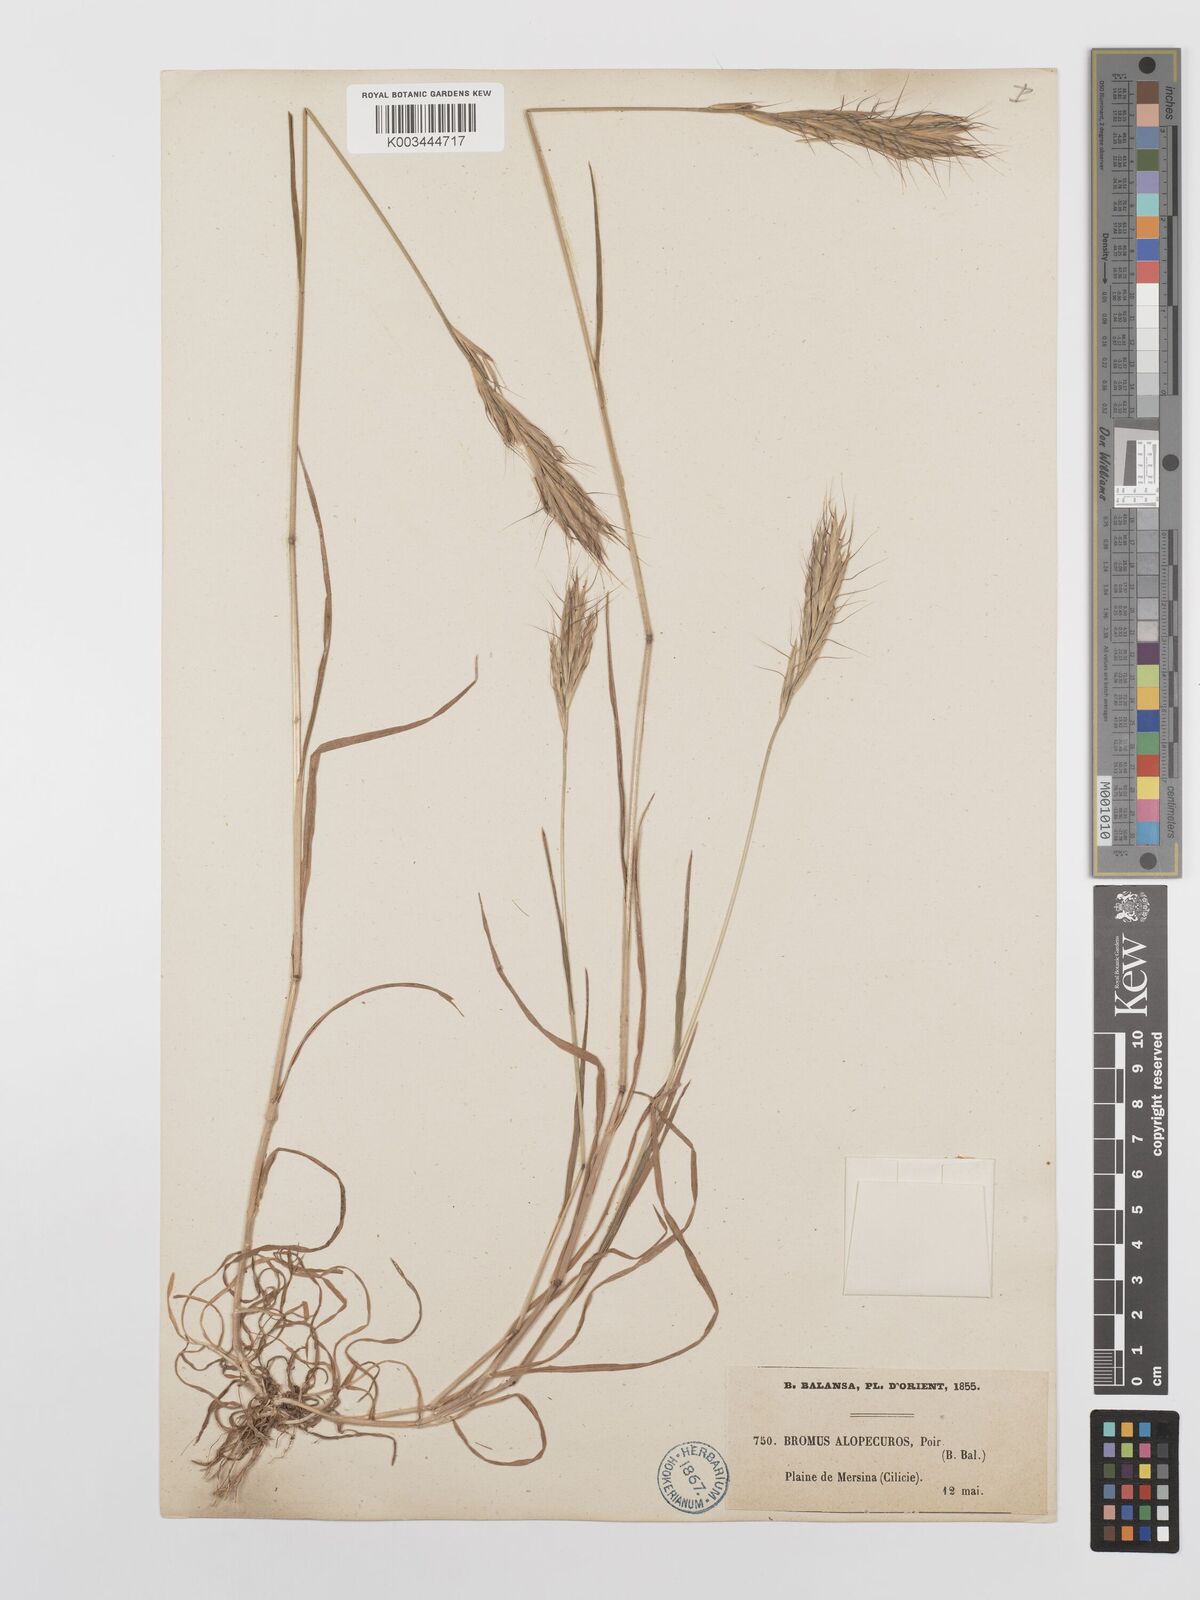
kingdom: Plantae
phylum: Tracheophyta
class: Liliopsida
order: Poales
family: Poaceae
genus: Bromus
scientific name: Bromus alopecuros
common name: Weedy brome
